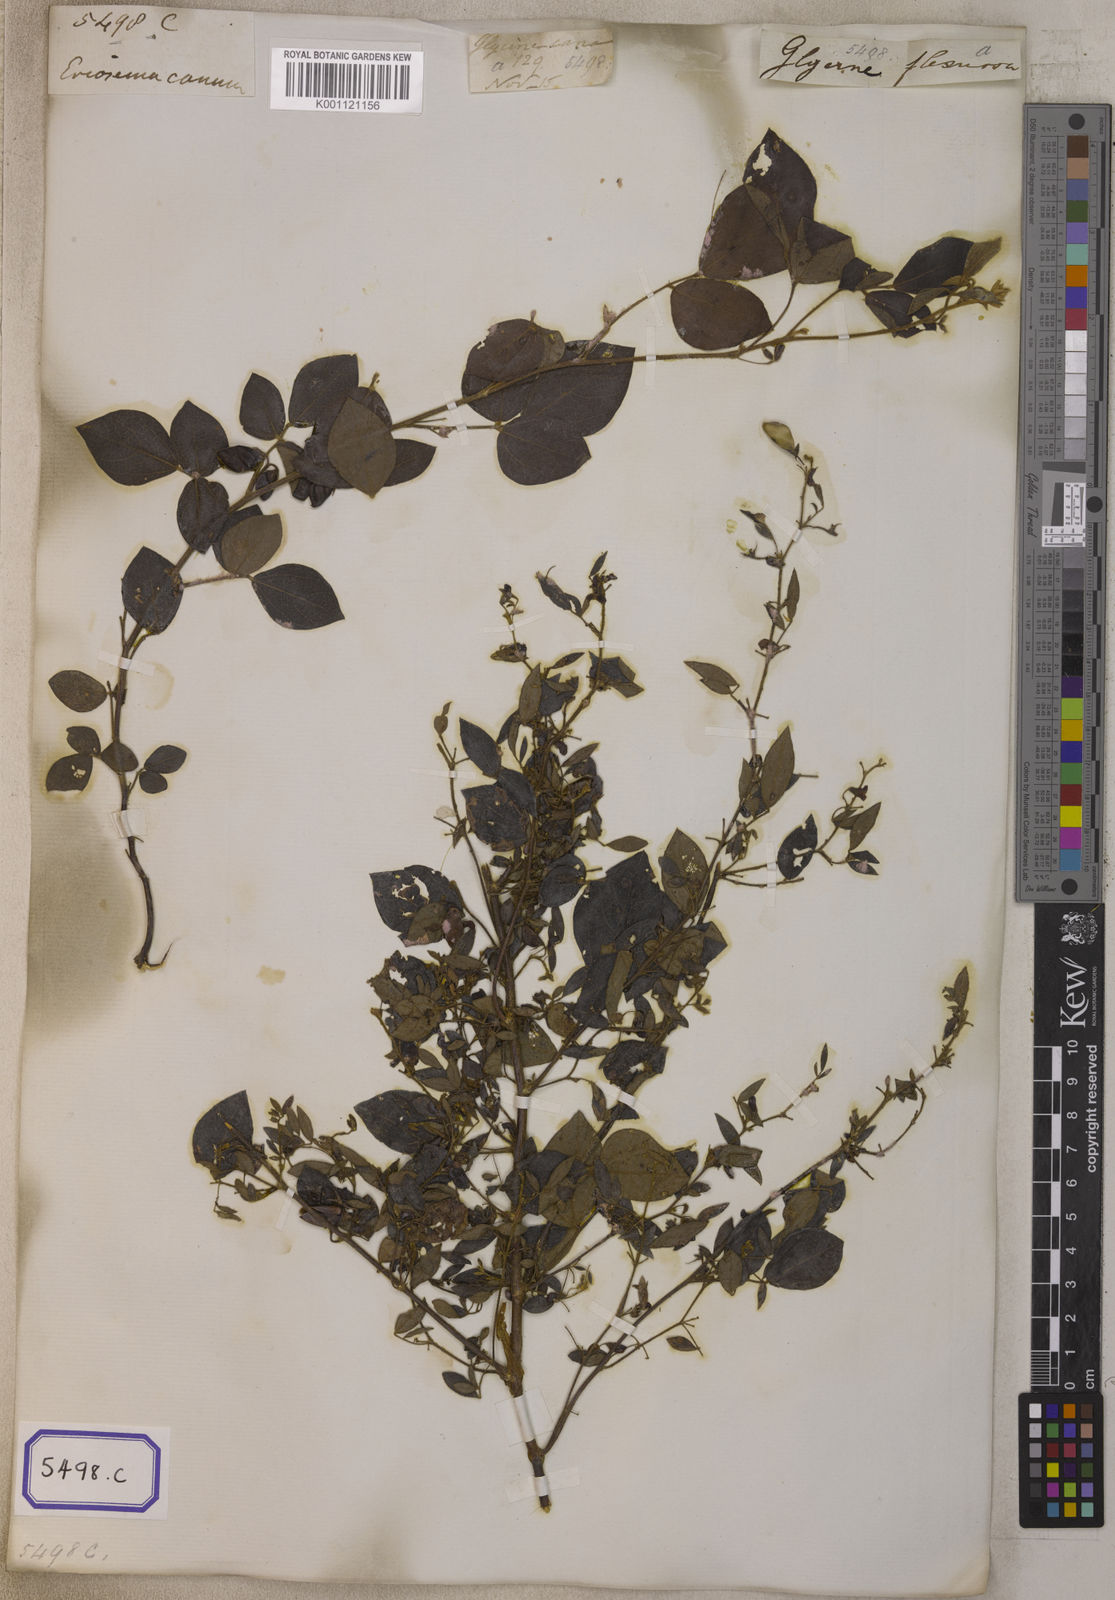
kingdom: Plantae
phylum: Tracheophyta
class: Magnoliopsida
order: Fabales
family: Fabaceae
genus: Rhynchosia
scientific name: Rhynchosia cana
